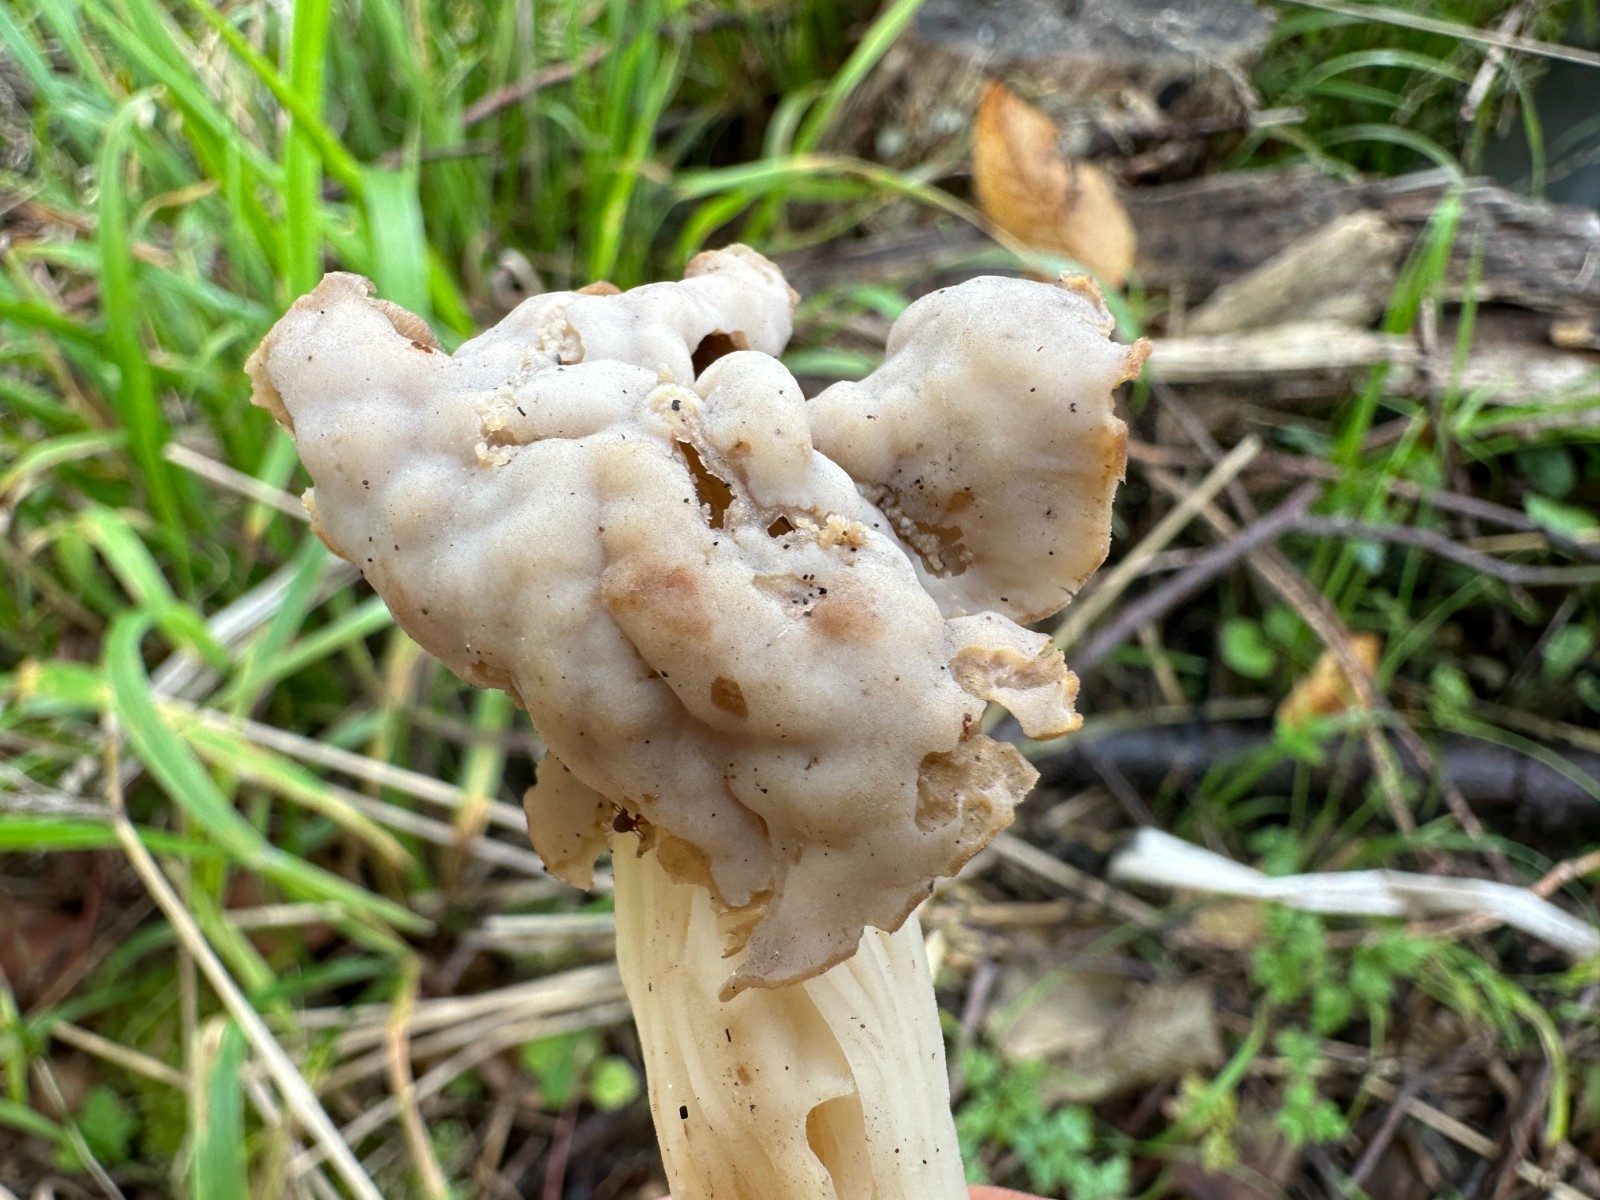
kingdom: Fungi
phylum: Ascomycota
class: Pezizomycetes
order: Pezizales
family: Helvellaceae
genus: Helvella
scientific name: Helvella crispa
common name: kruset foldhat
